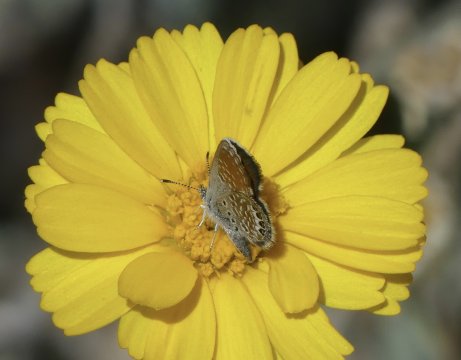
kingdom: Animalia
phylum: Arthropoda
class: Insecta
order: Lepidoptera
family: Lycaenidae
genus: Brephidium
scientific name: Brephidium exilis
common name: Western Pygmy-Blue
